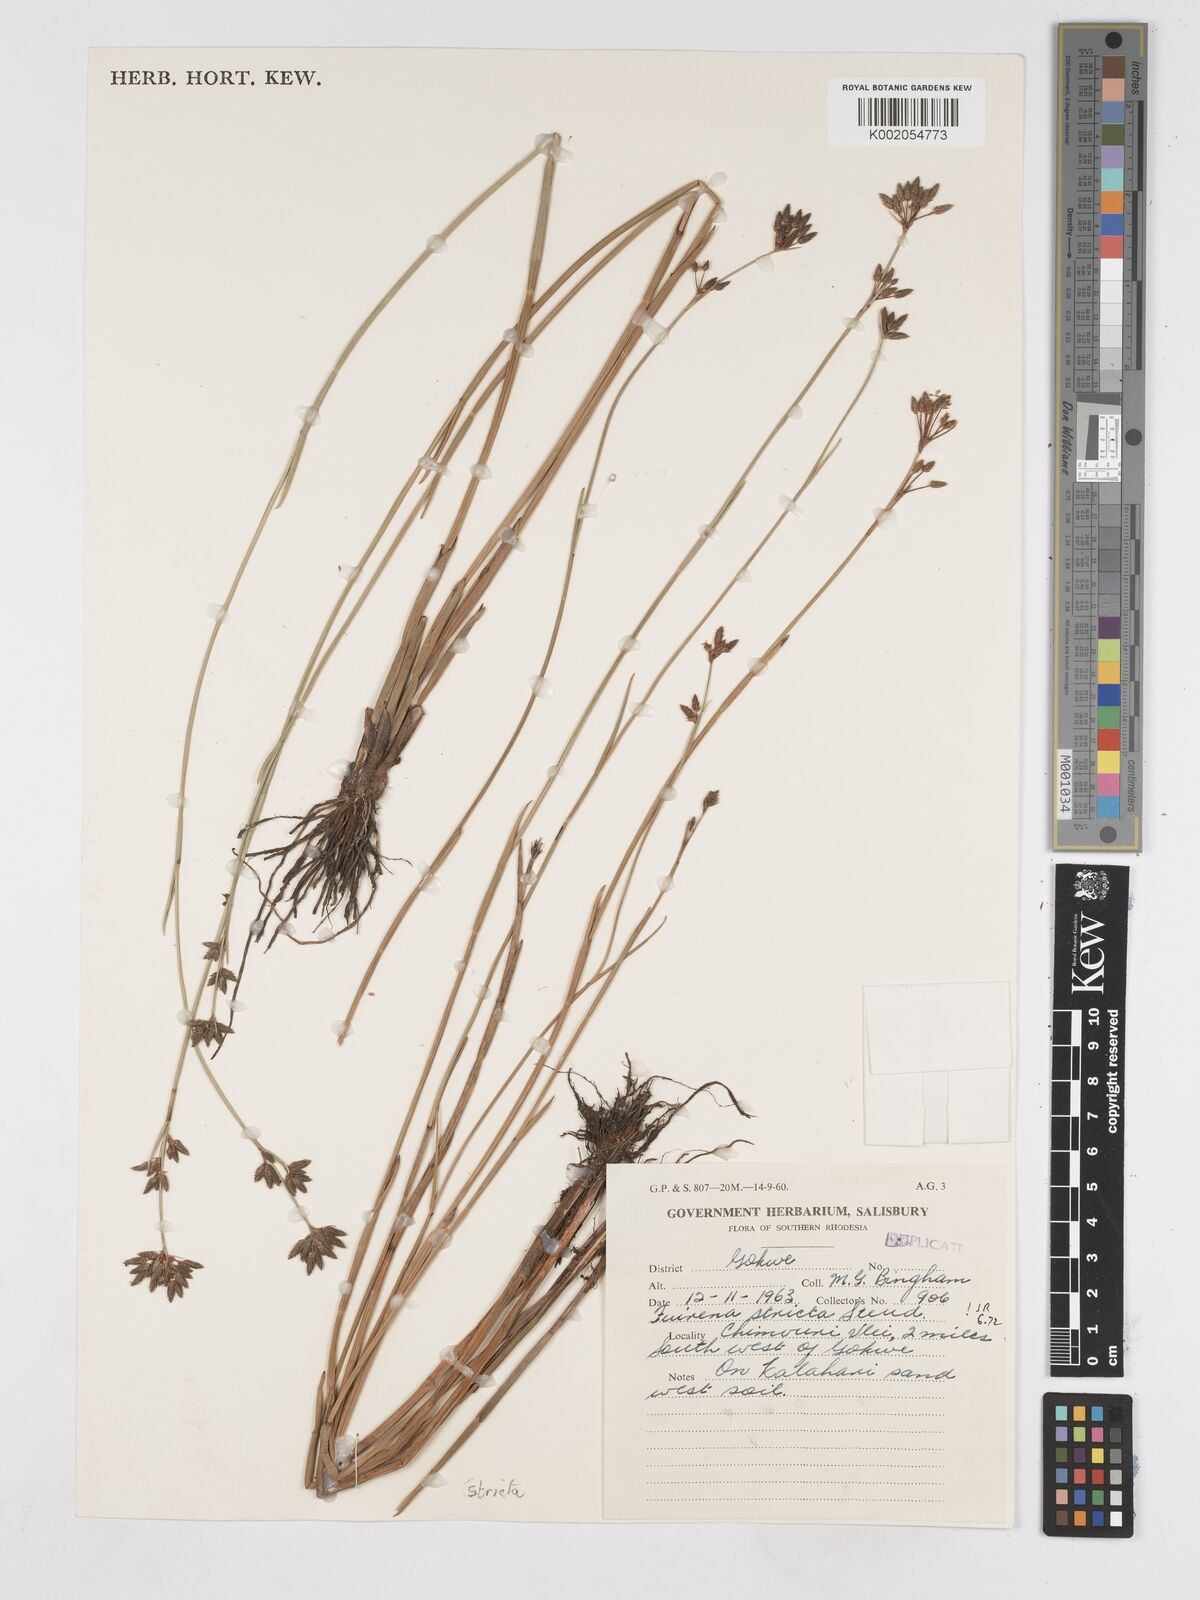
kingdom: Plantae
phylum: Tracheophyta
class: Liliopsida
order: Poales
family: Cyperaceae
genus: Fuirena
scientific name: Fuirena stricta
